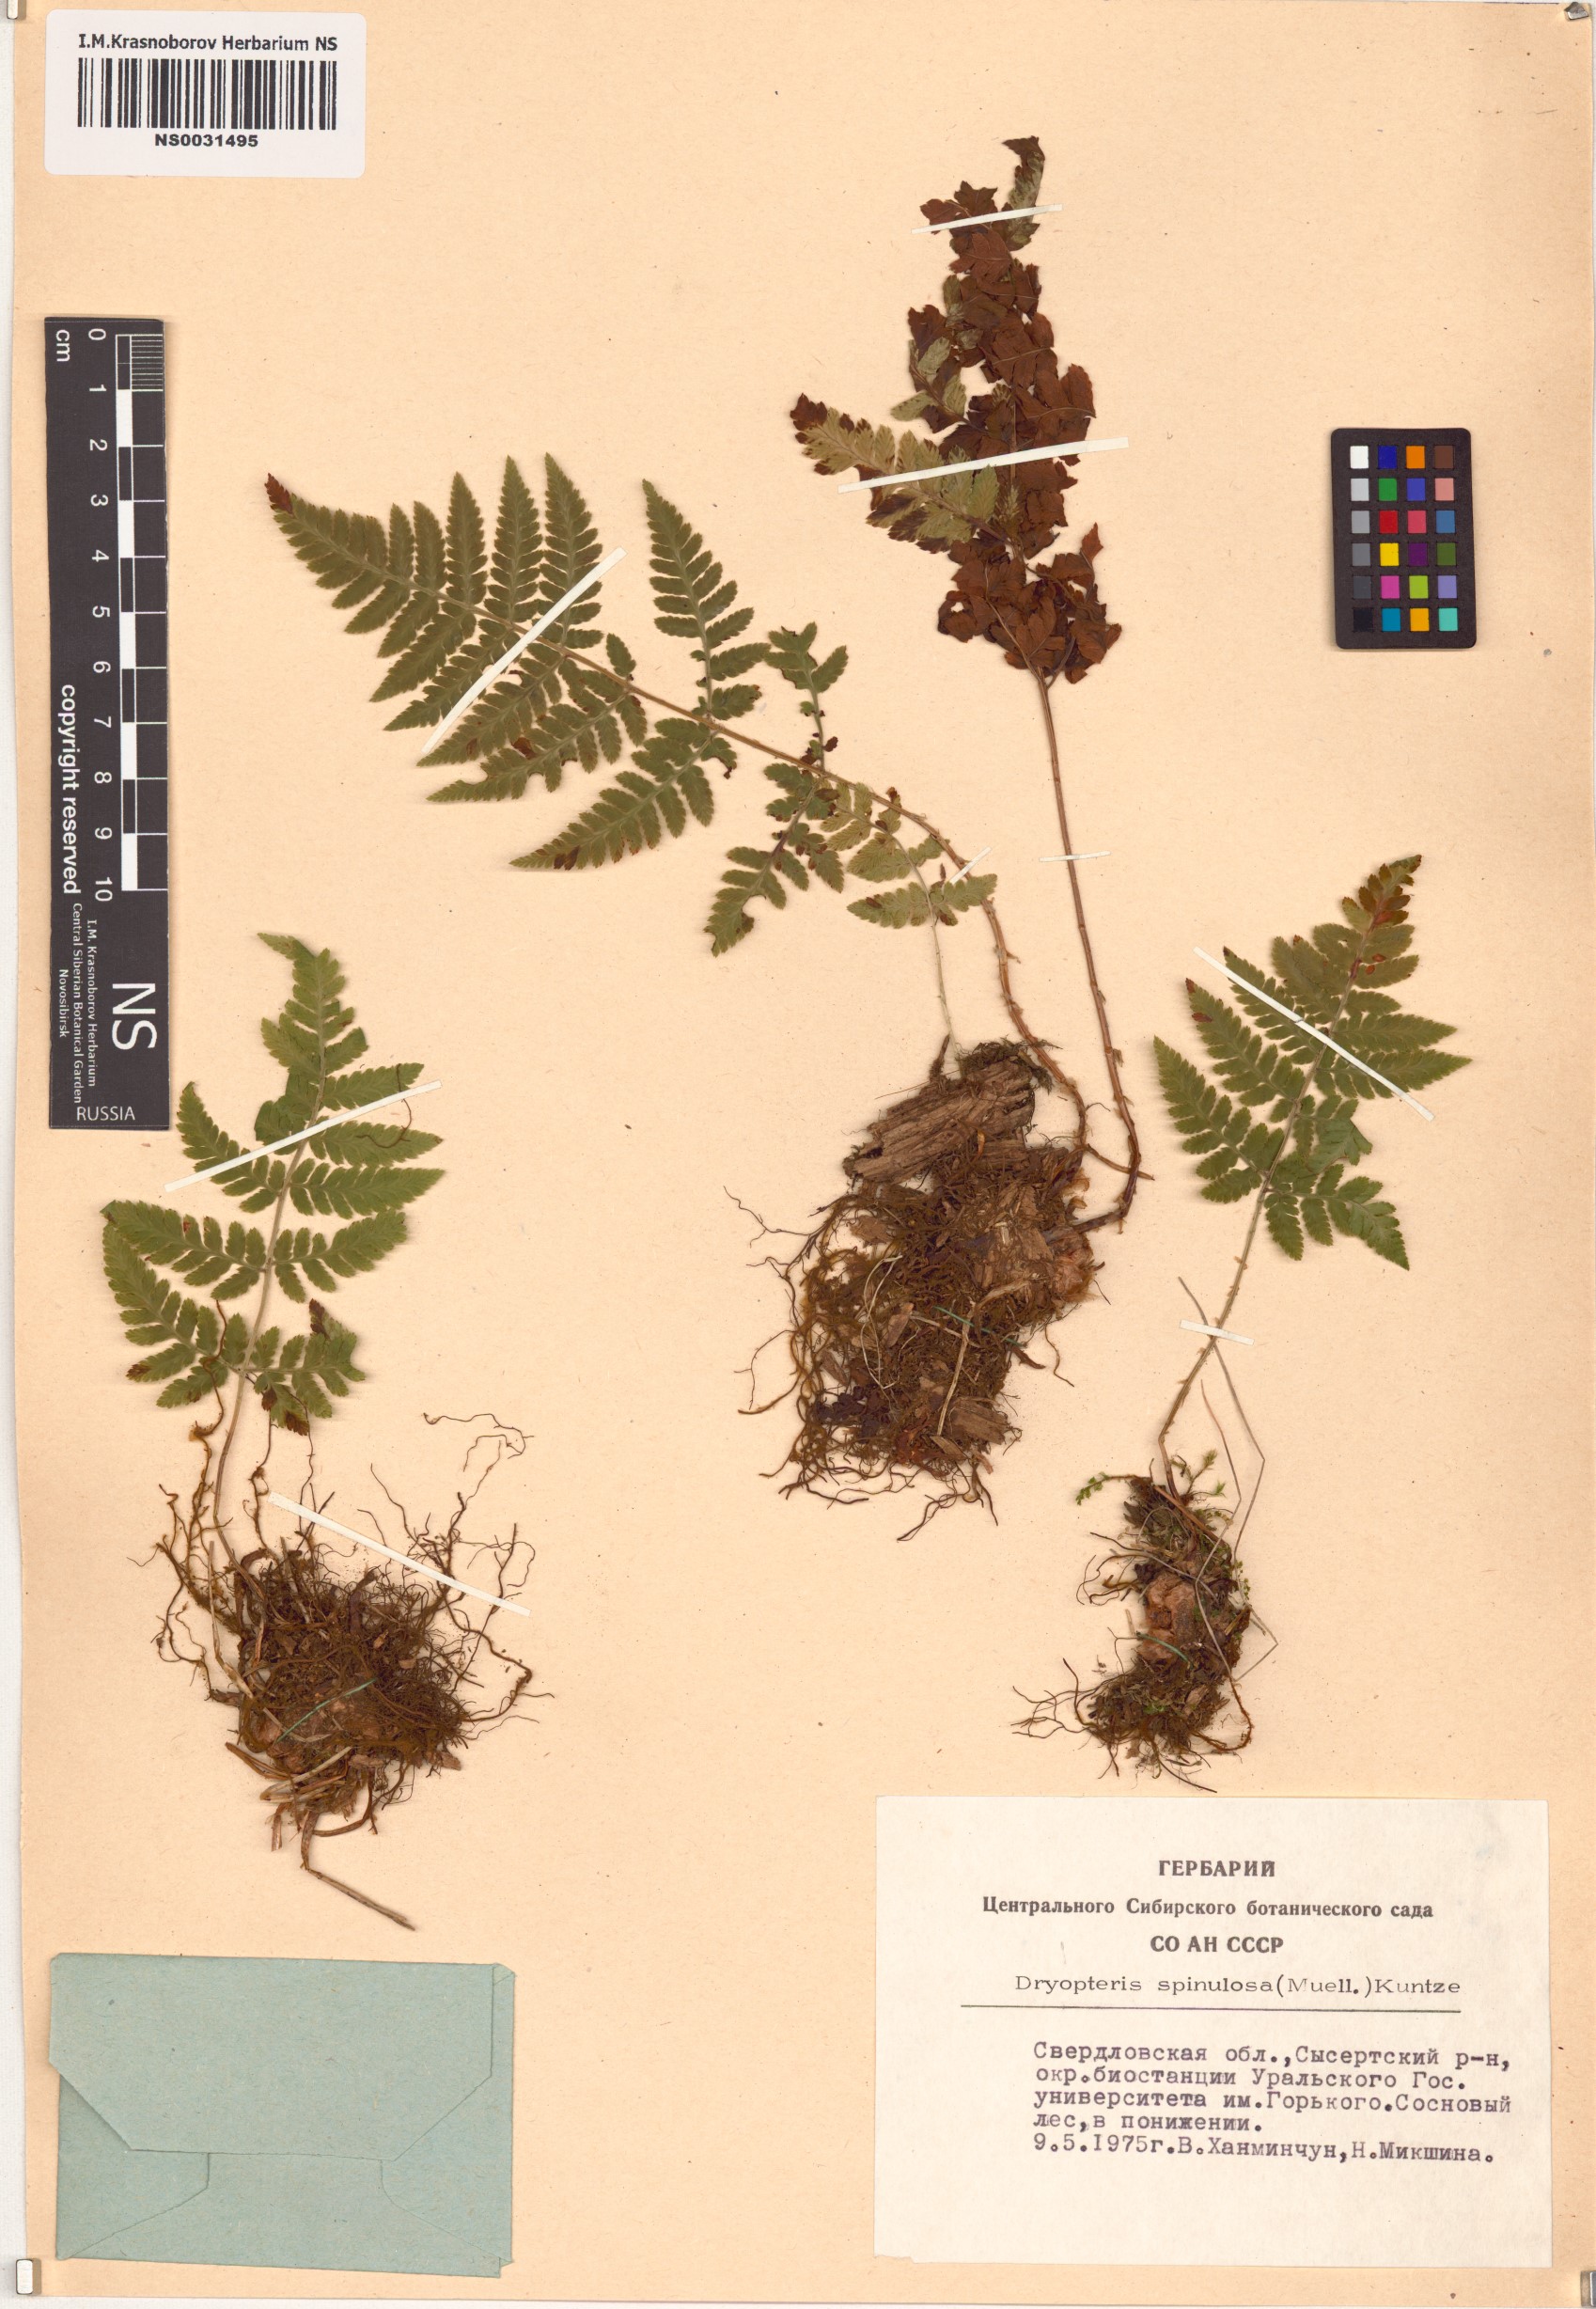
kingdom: Plantae
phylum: Tracheophyta
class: Polypodiopsida
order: Polypodiales
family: Dryopteridaceae
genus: Dryopteris
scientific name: Dryopteris carthusiana
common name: Narrow buckler-fern
